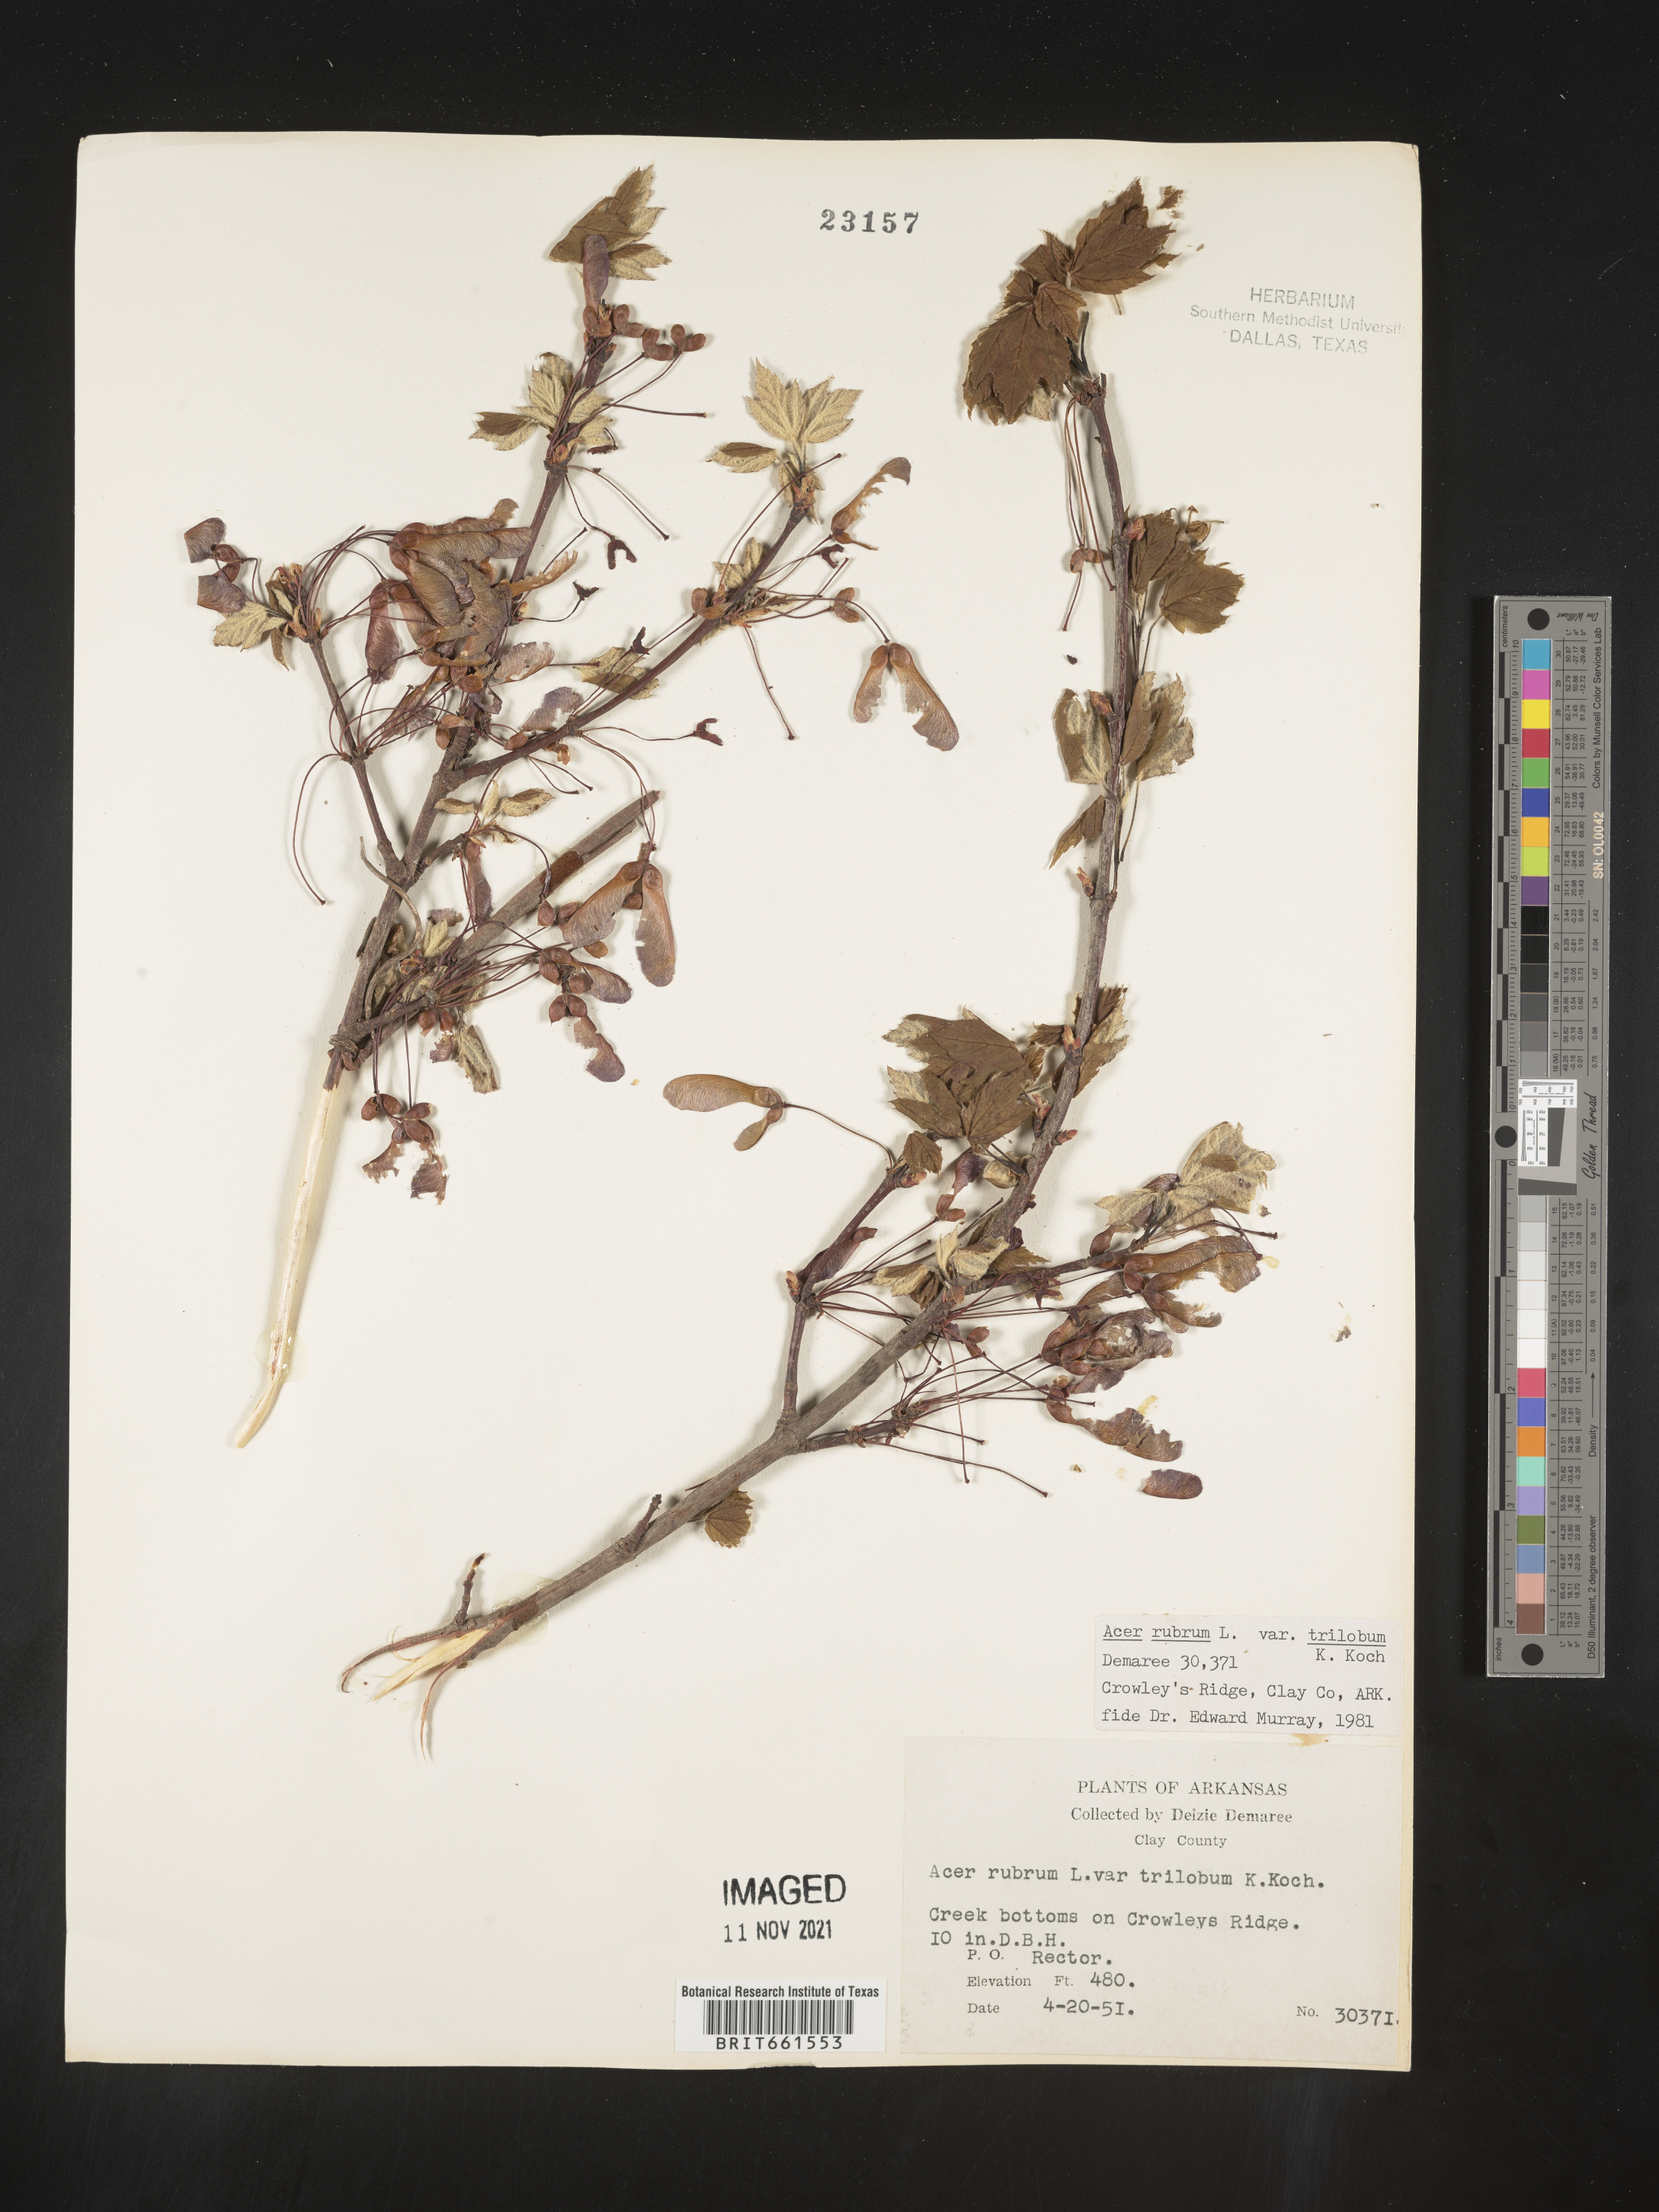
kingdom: Plantae
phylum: Tracheophyta
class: Magnoliopsida
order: Sapindales
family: Sapindaceae
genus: Acer
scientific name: Acer rubrum
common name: Red maple
